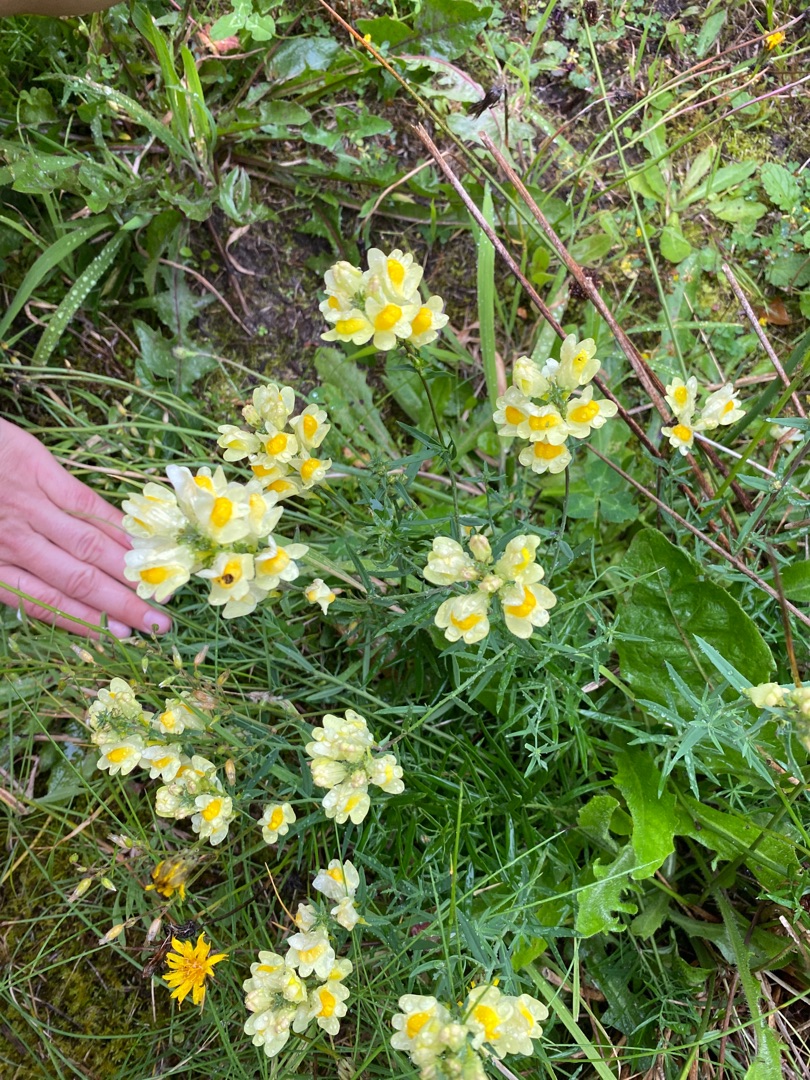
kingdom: Plantae
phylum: Tracheophyta
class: Magnoliopsida
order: Lamiales
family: Plantaginaceae
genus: Linaria
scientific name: Linaria vulgaris
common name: Almindelig torskemund
